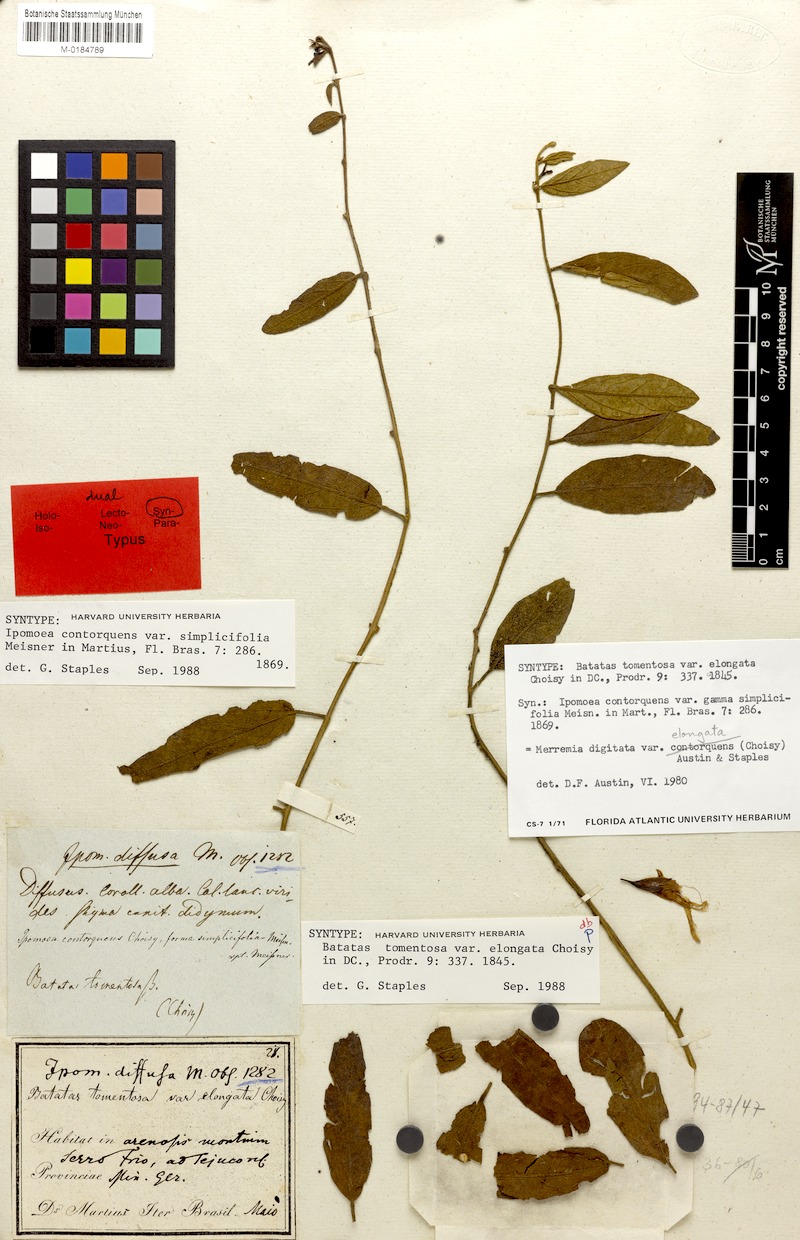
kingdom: Plantae
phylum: Tracheophyta
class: Magnoliopsida
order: Solanales
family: Convolvulaceae
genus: Distimake
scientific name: Distimake
